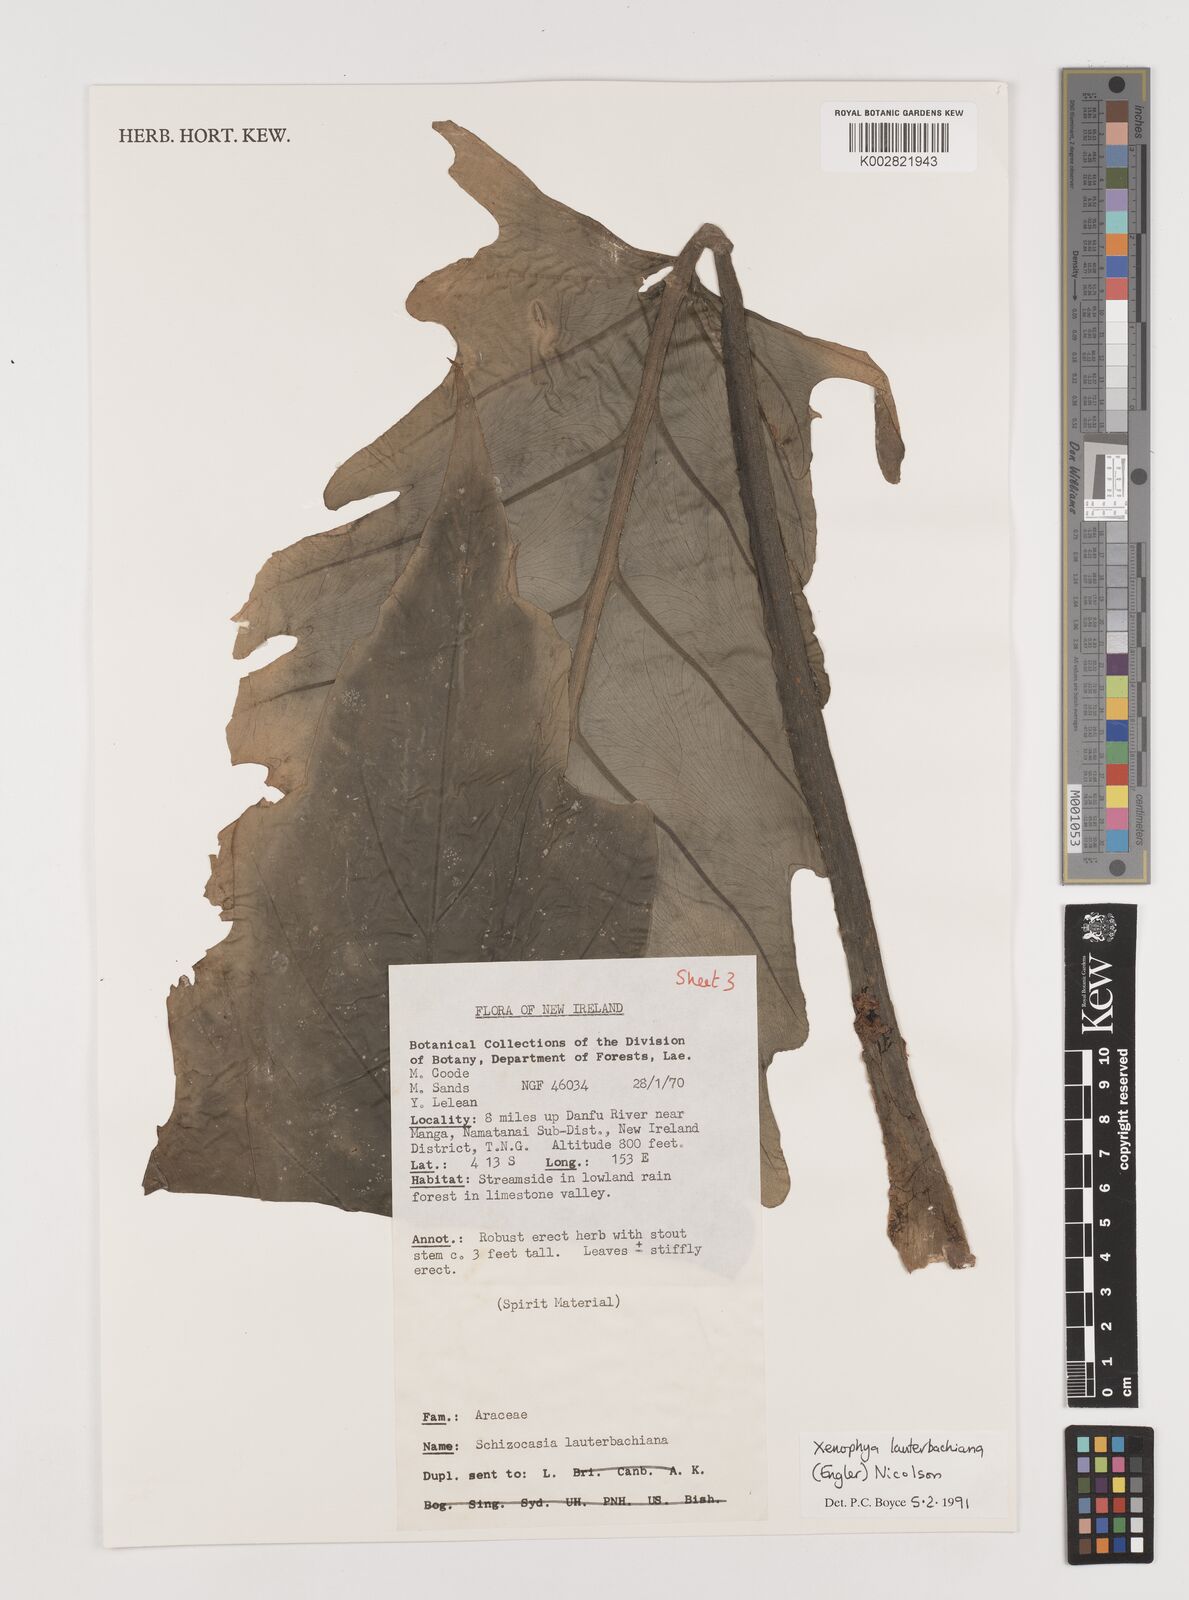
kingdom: Plantae
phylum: Tracheophyta
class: Liliopsida
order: Alismatales
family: Araceae
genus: Alocasia
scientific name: Alocasia lauterbachiana
